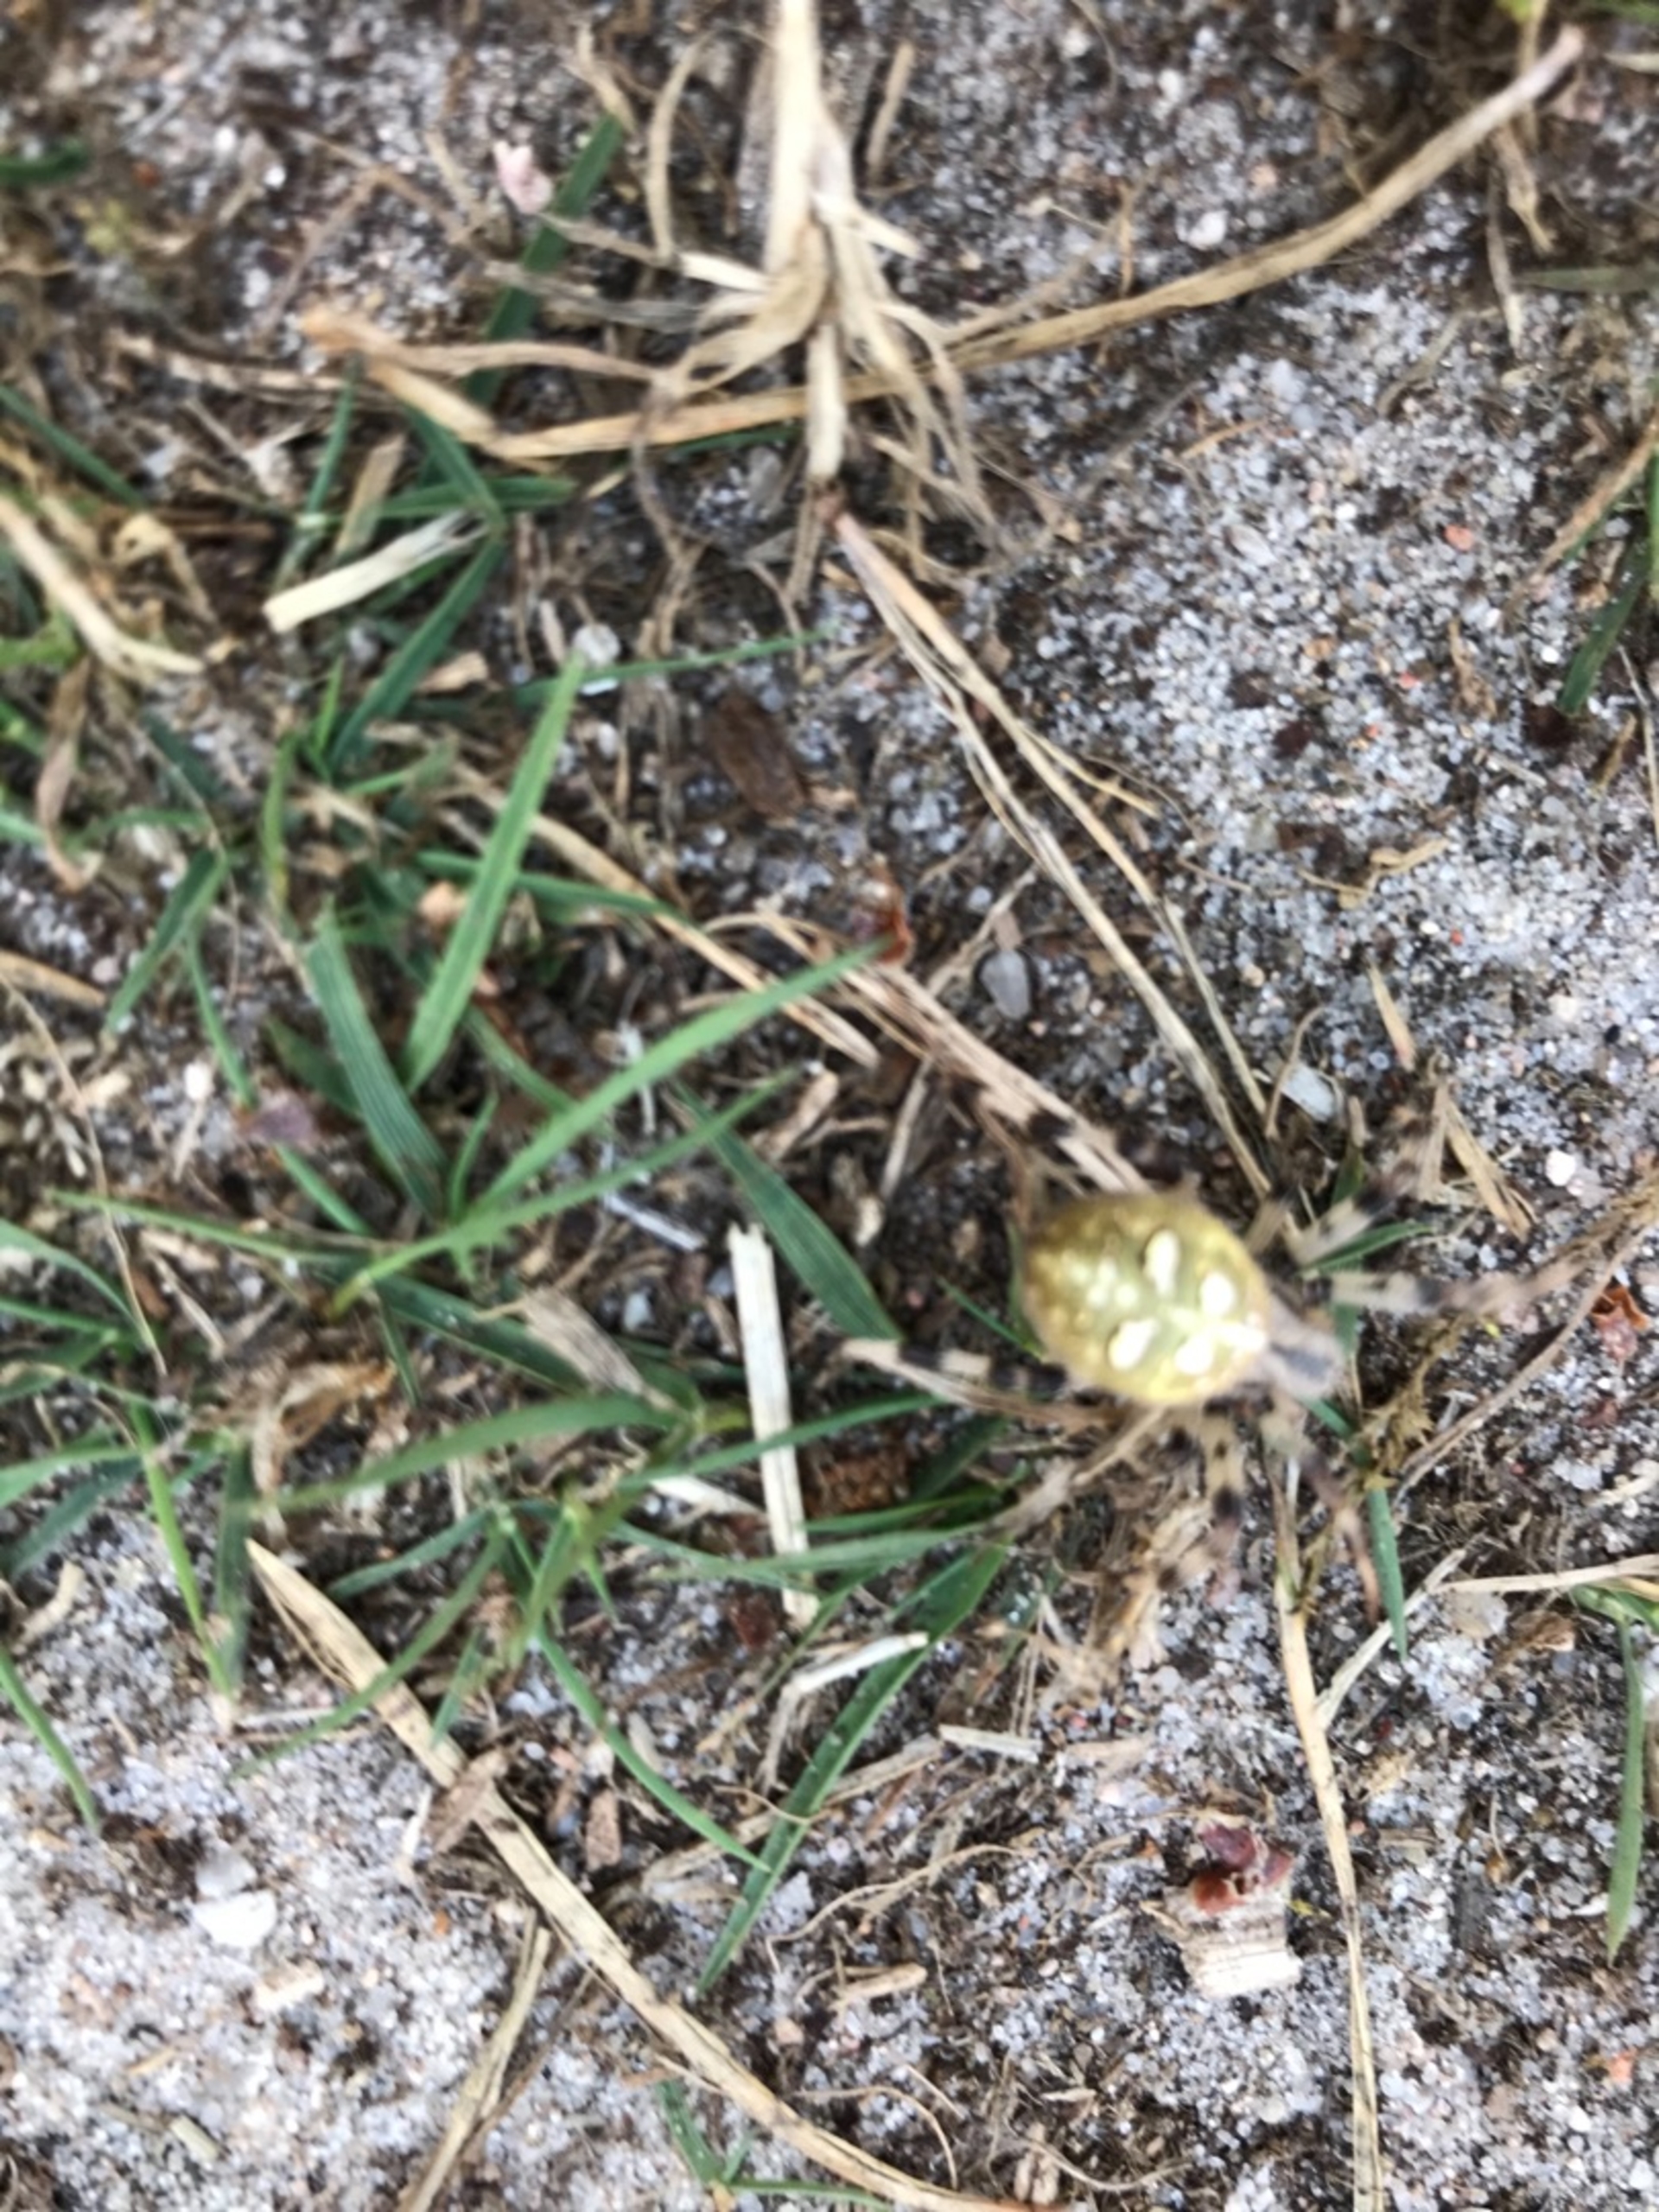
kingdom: Animalia
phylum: Arthropoda
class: Arachnida
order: Araneae
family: Araneidae
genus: Araneus
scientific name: Araneus quadratus
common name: Kvadratedderkop
